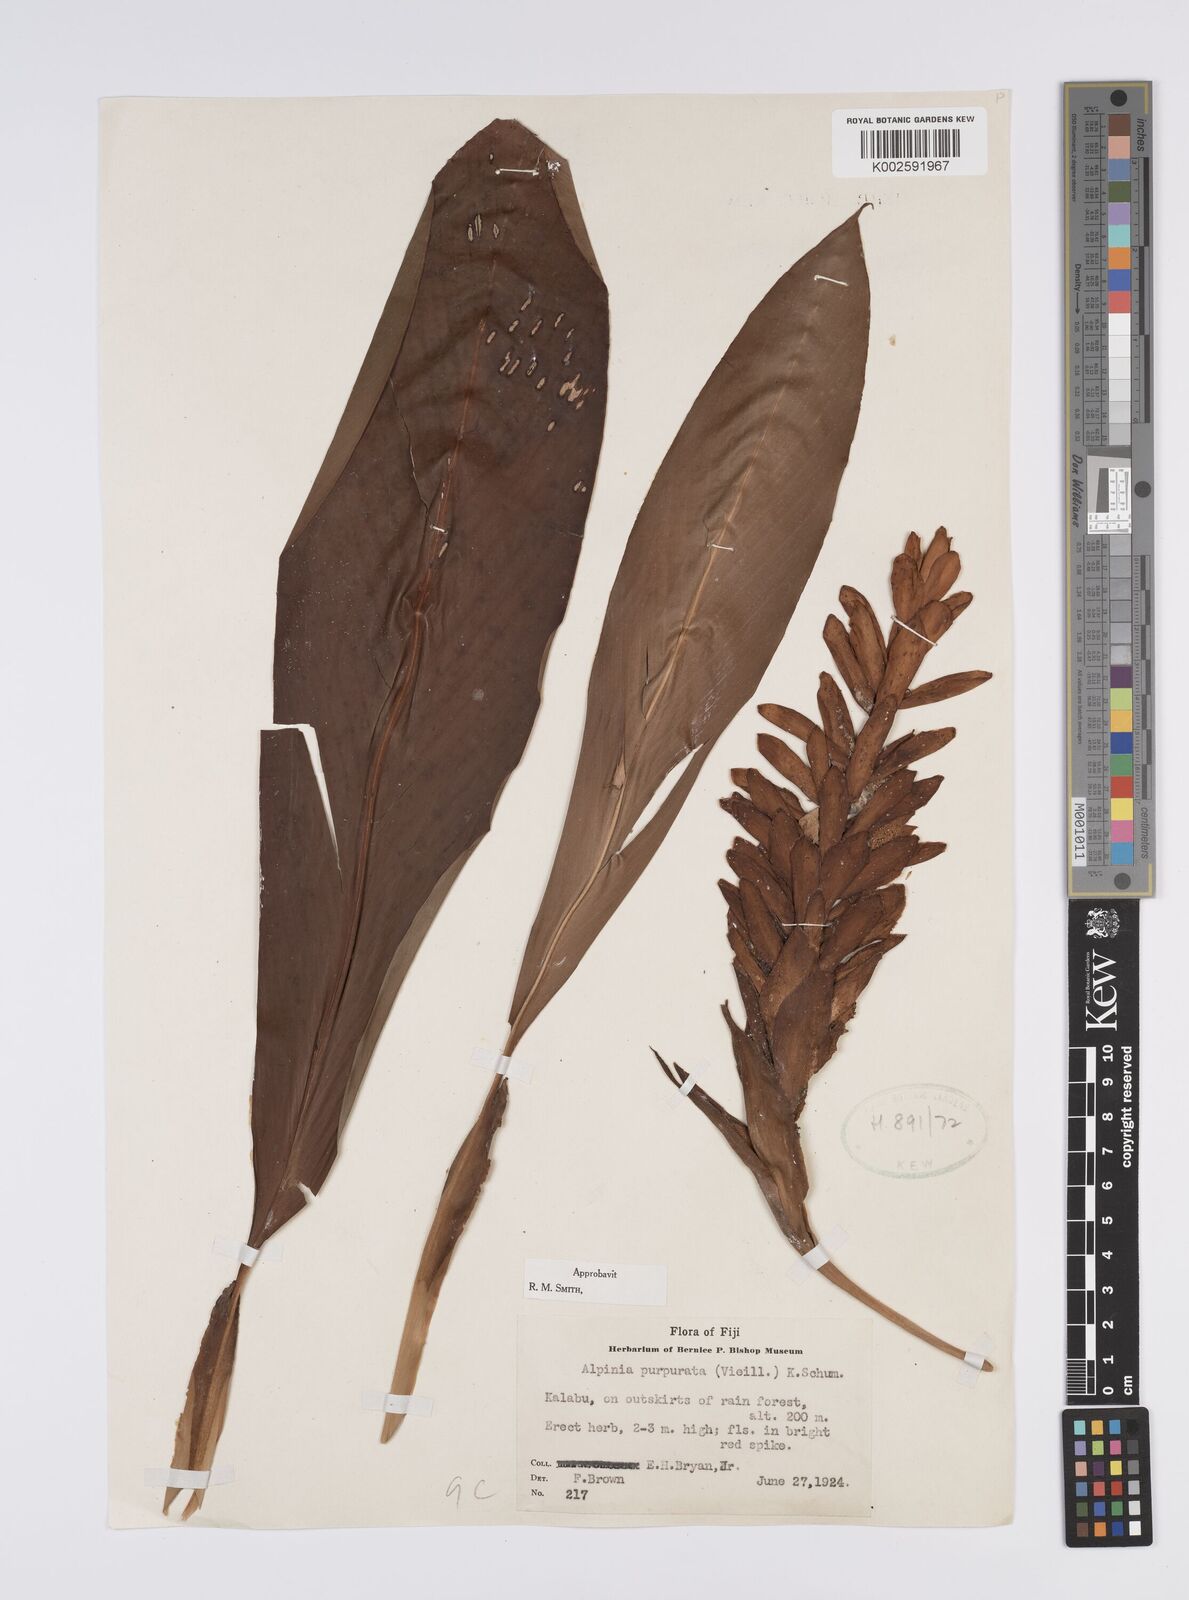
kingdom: Plantae
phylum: Tracheophyta
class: Liliopsida
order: Zingiberales
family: Zingiberaceae
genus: Alpinia
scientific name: Alpinia purpurata
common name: Red ginger
